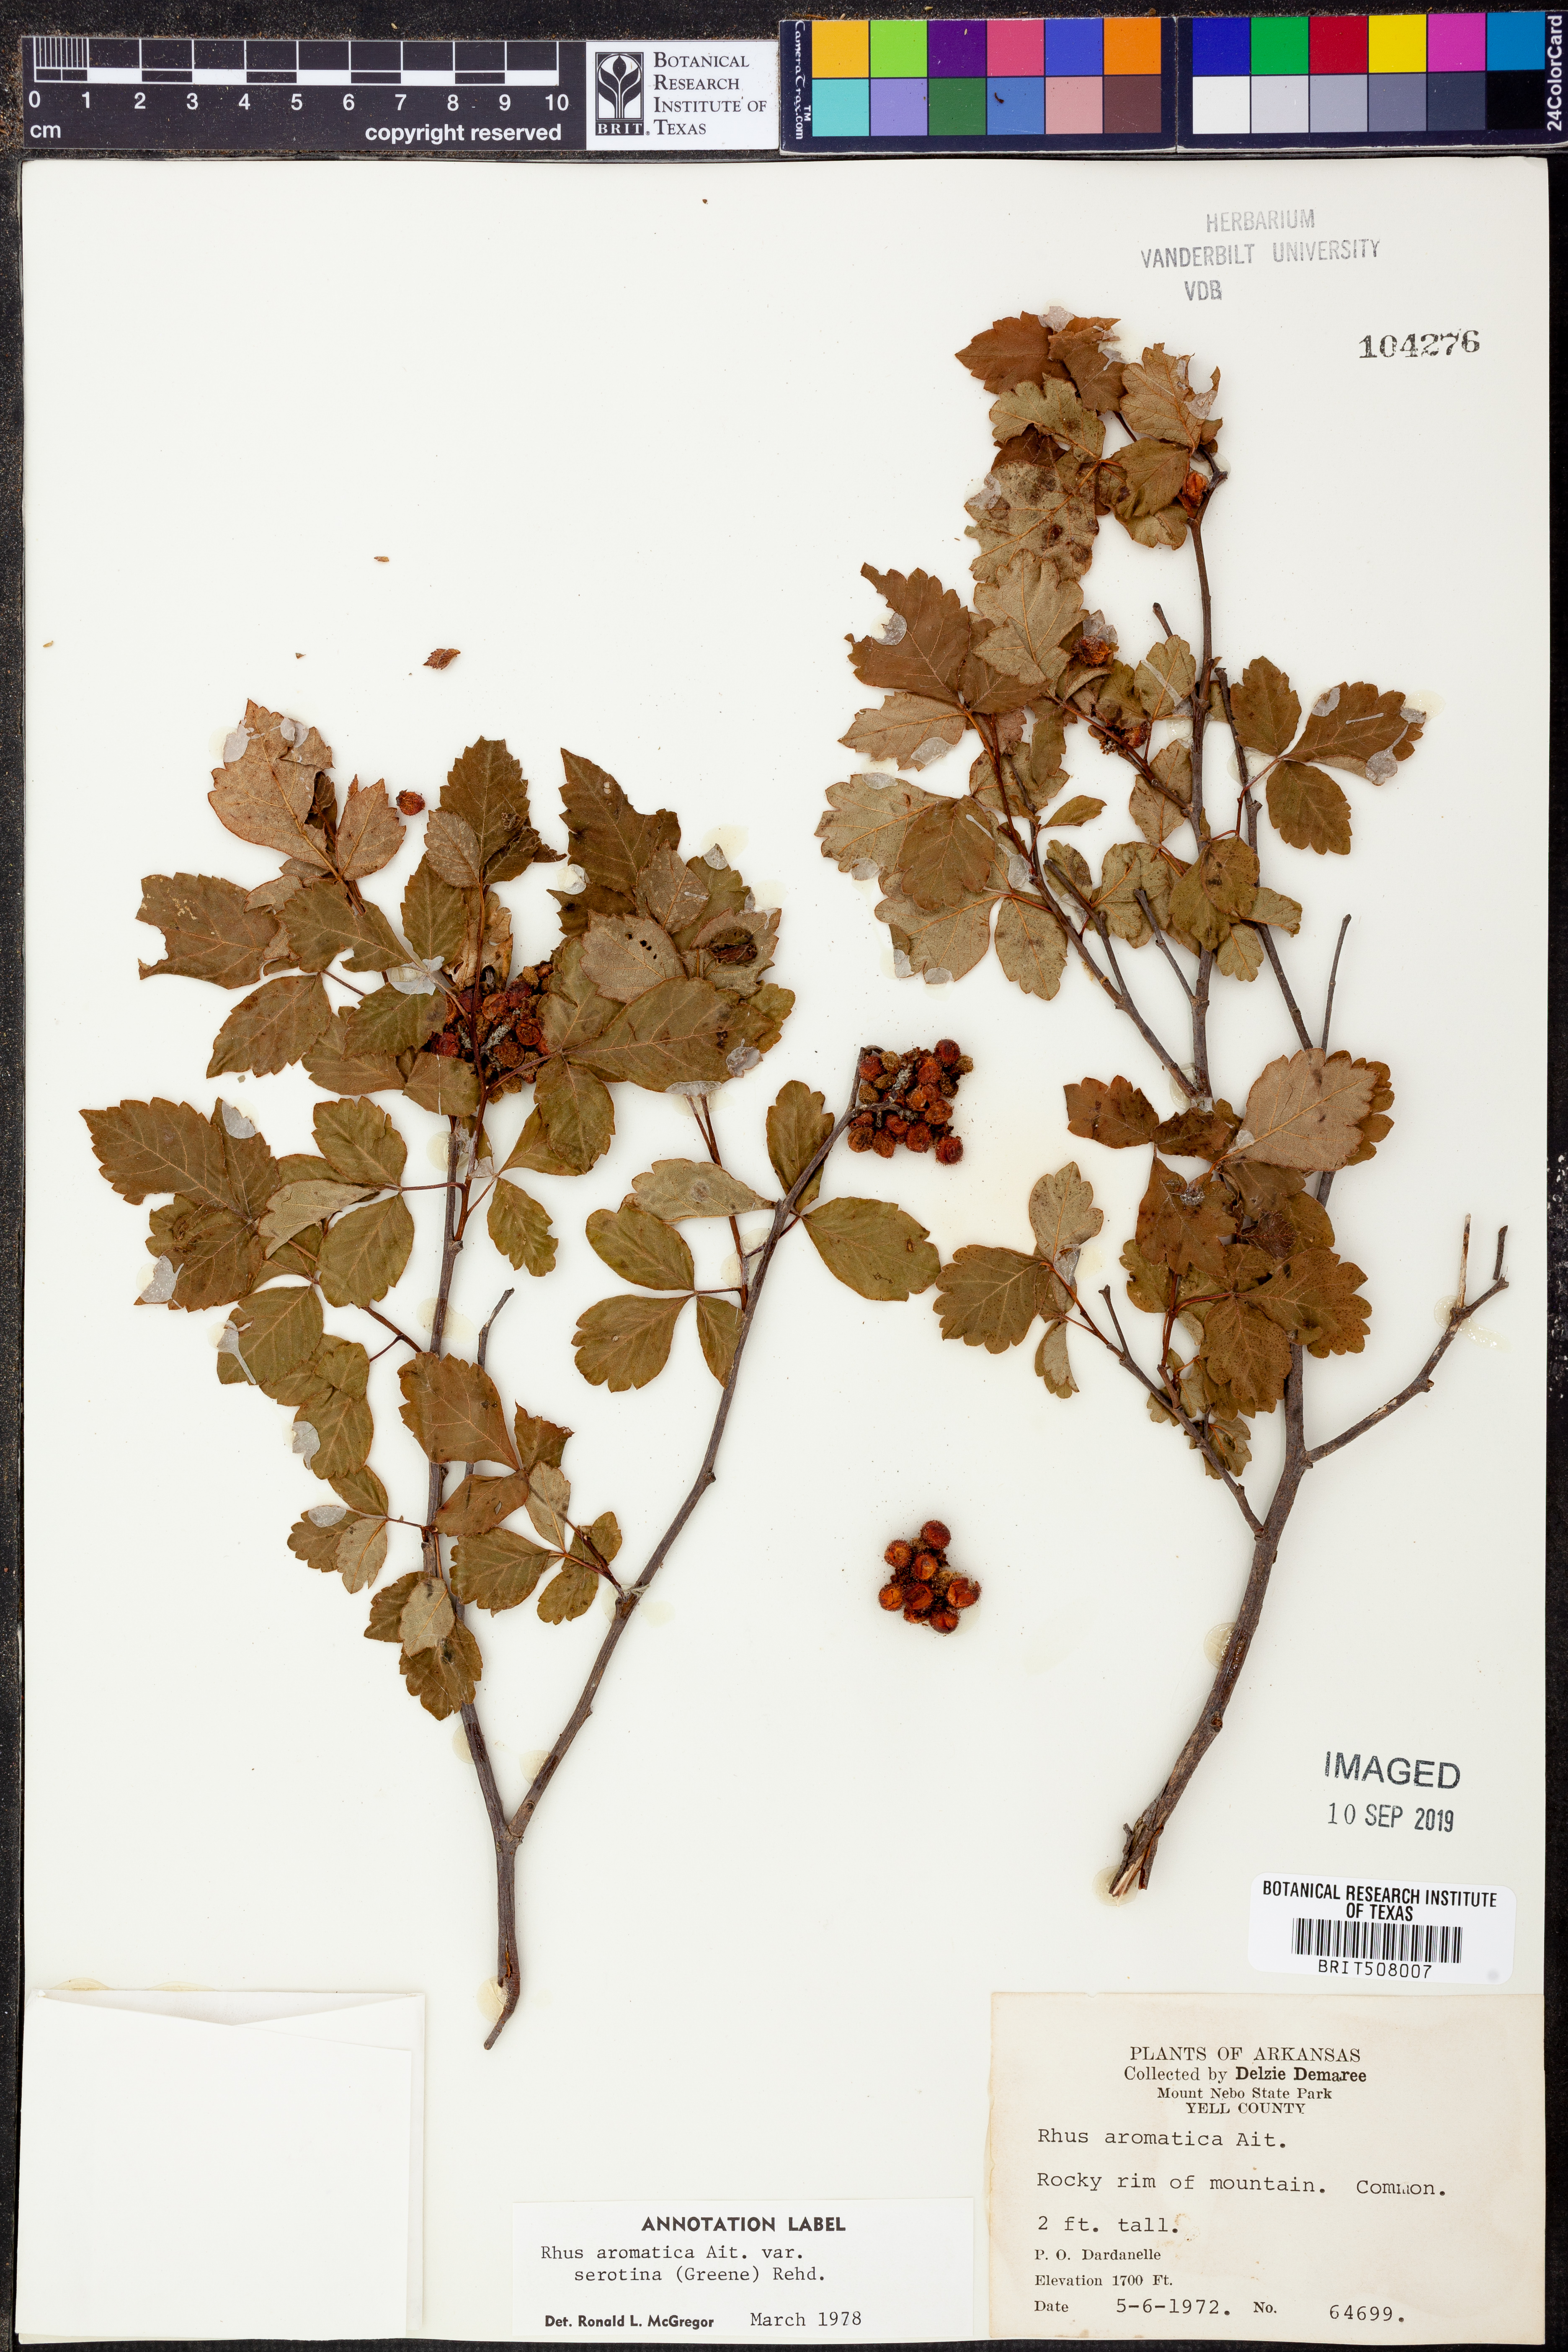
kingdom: Plantae
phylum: Tracheophyta
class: Magnoliopsida
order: Sapindales
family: Anacardiaceae
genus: Rhus
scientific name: Rhus aromatica
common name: Aromatic sumac
